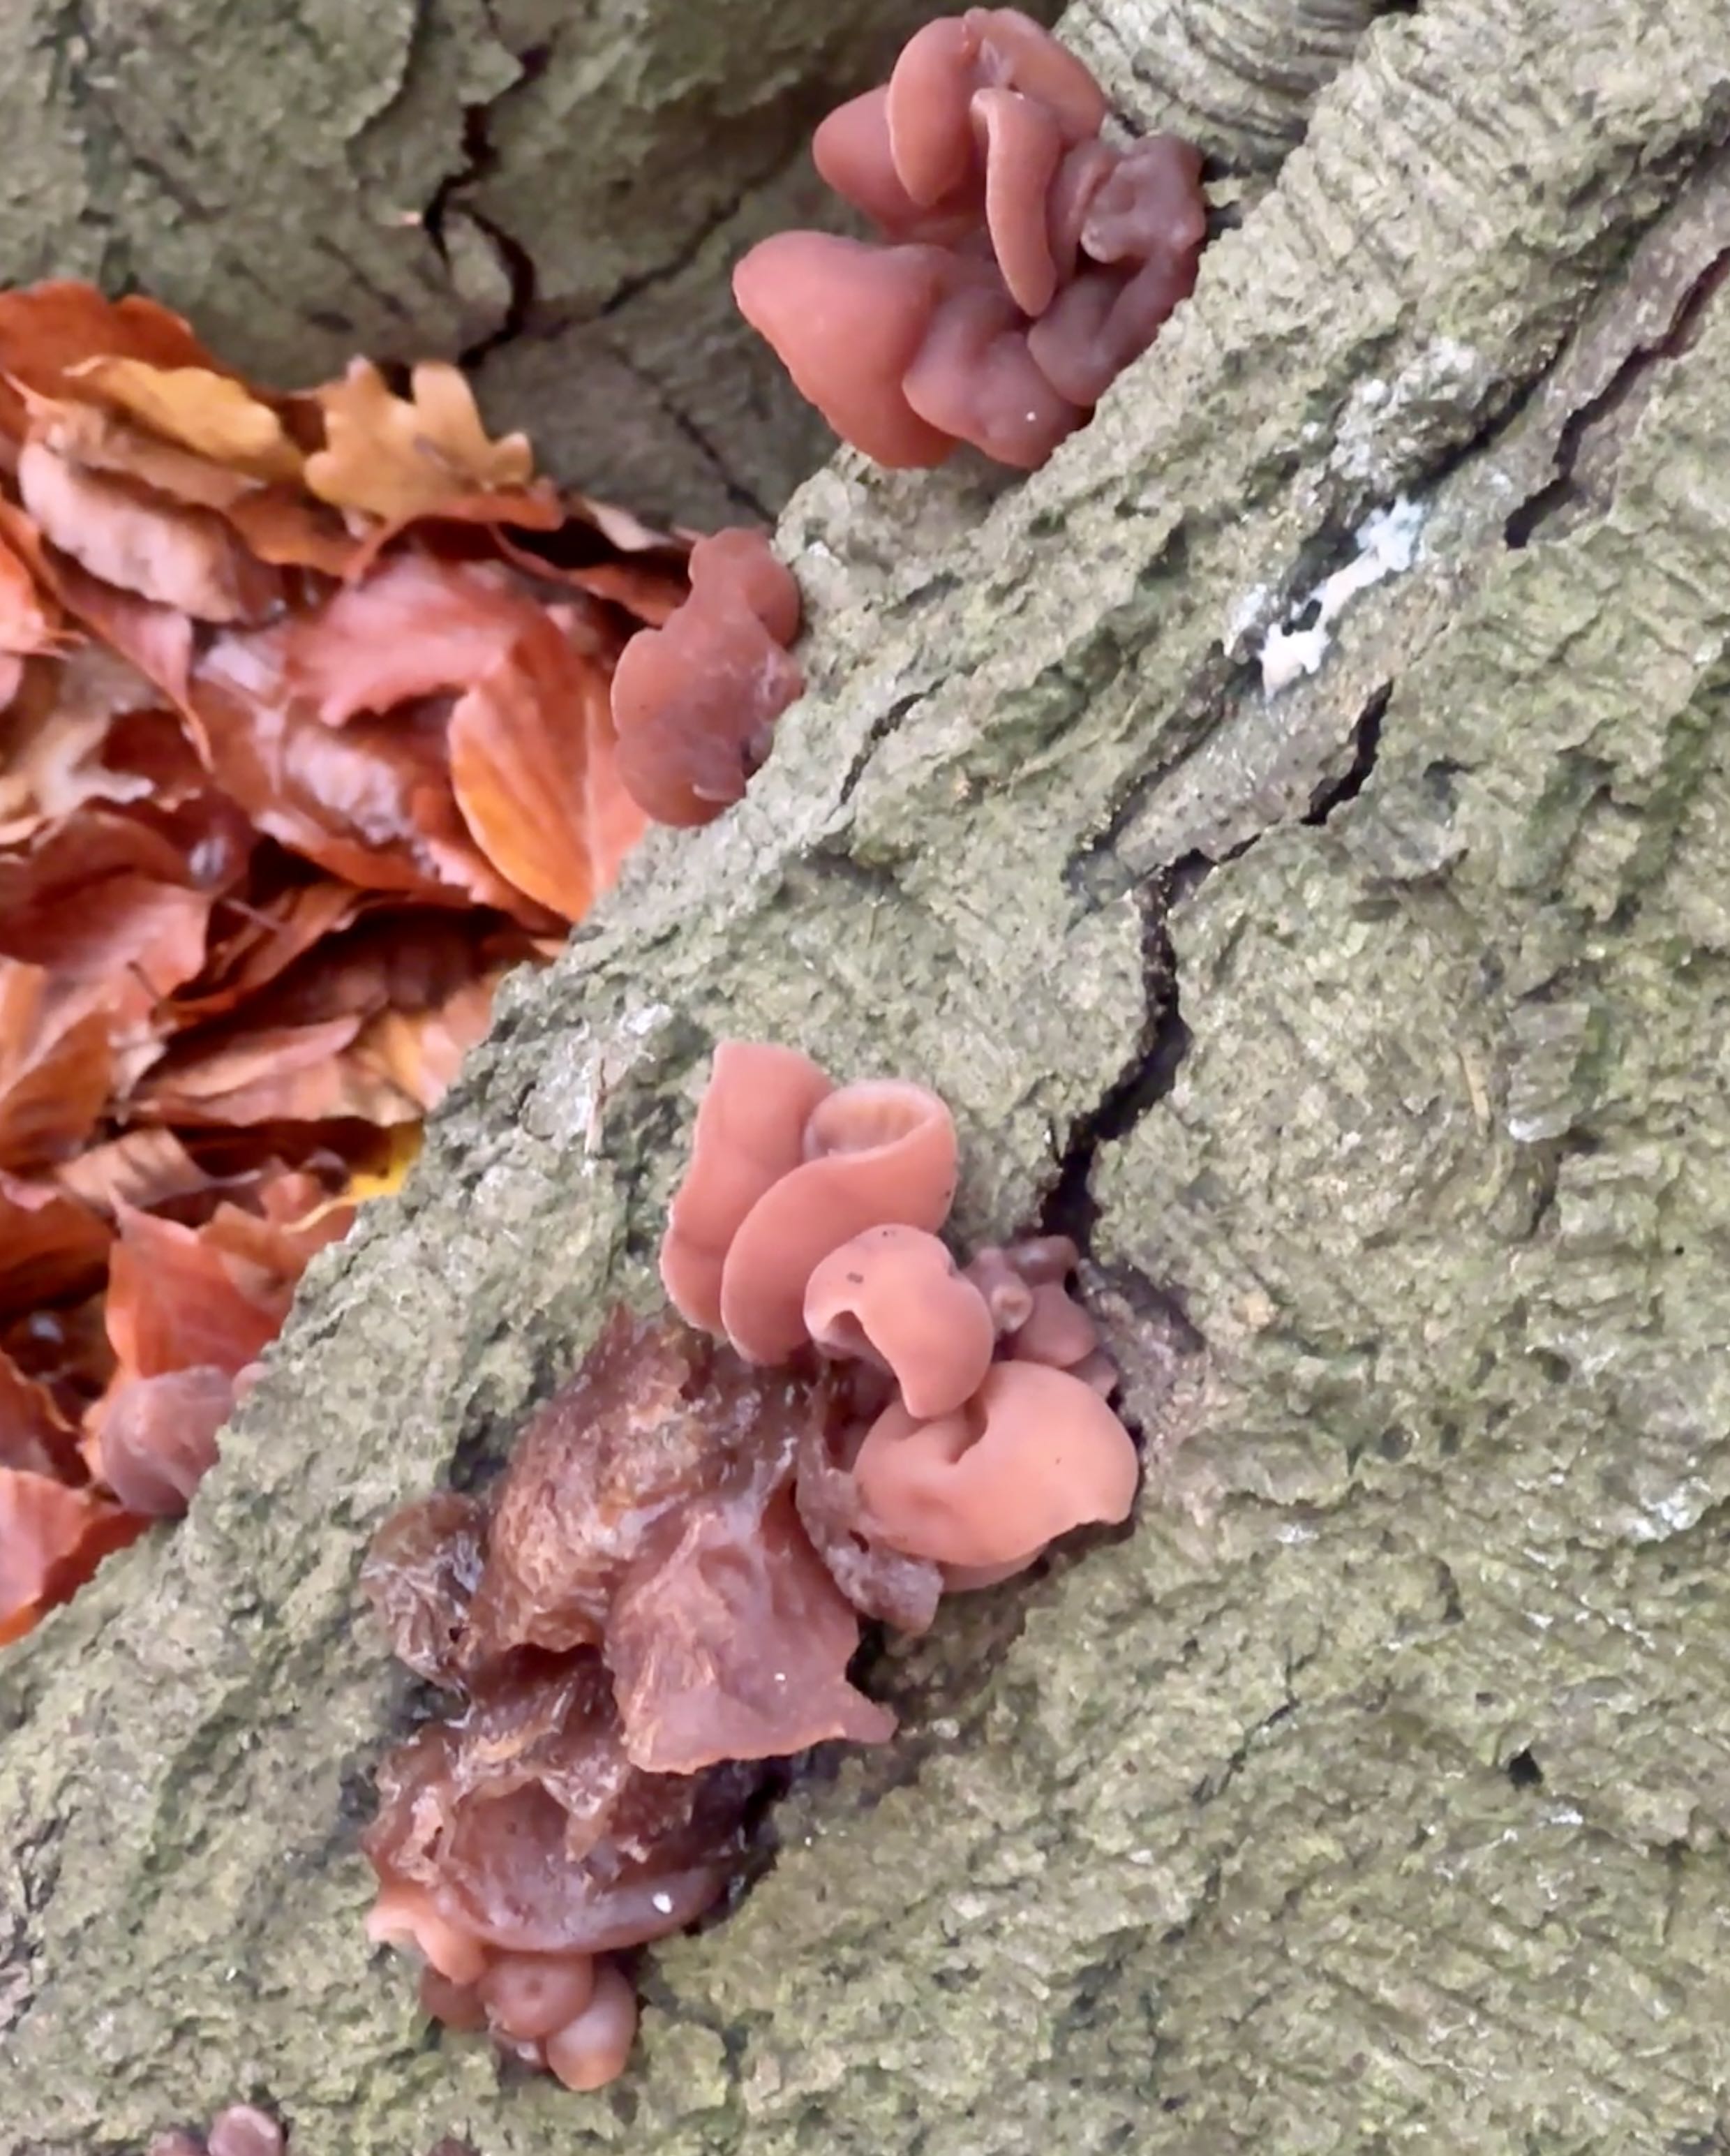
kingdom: Fungi
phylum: Basidiomycota
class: Agaricomycetes
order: Auriculariales
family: Auriculariaceae
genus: Auricularia
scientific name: Auricularia auricula-judae
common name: almindelig judasøre
